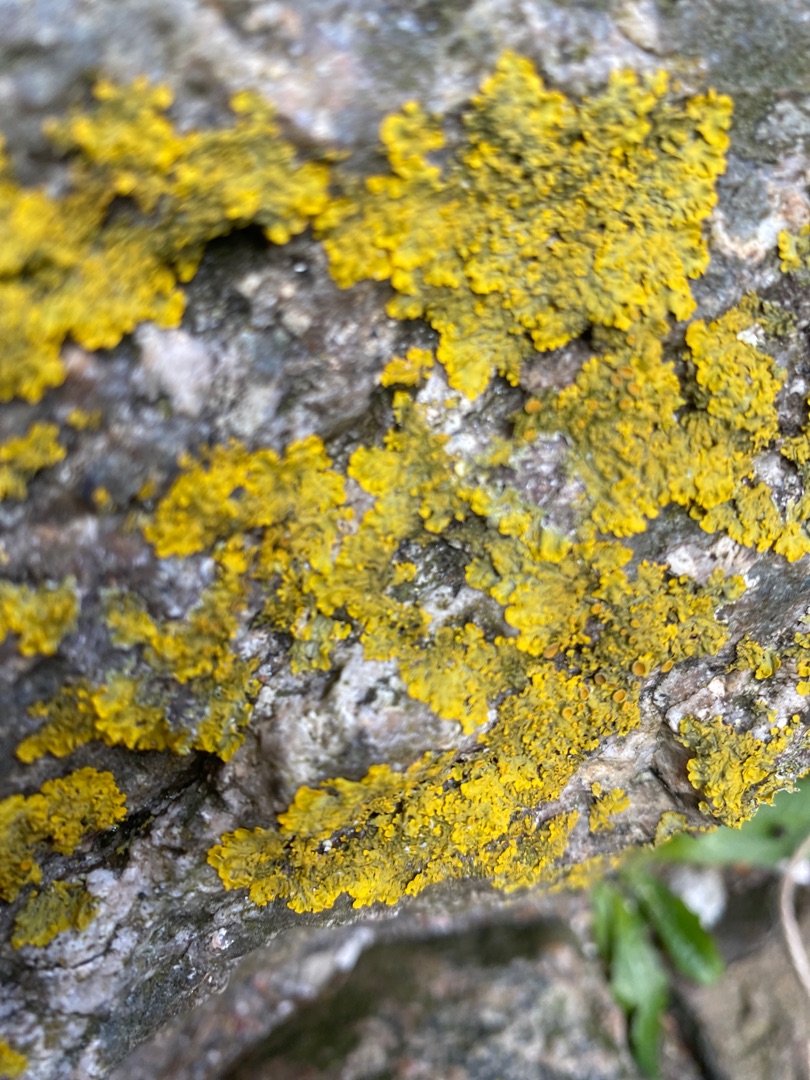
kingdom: Fungi
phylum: Ascomycota
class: Lecanoromycetes
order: Teloschistales
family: Teloschistaceae
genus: Xanthoria
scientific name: Xanthoria parietina
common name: Almindelig væggelav
